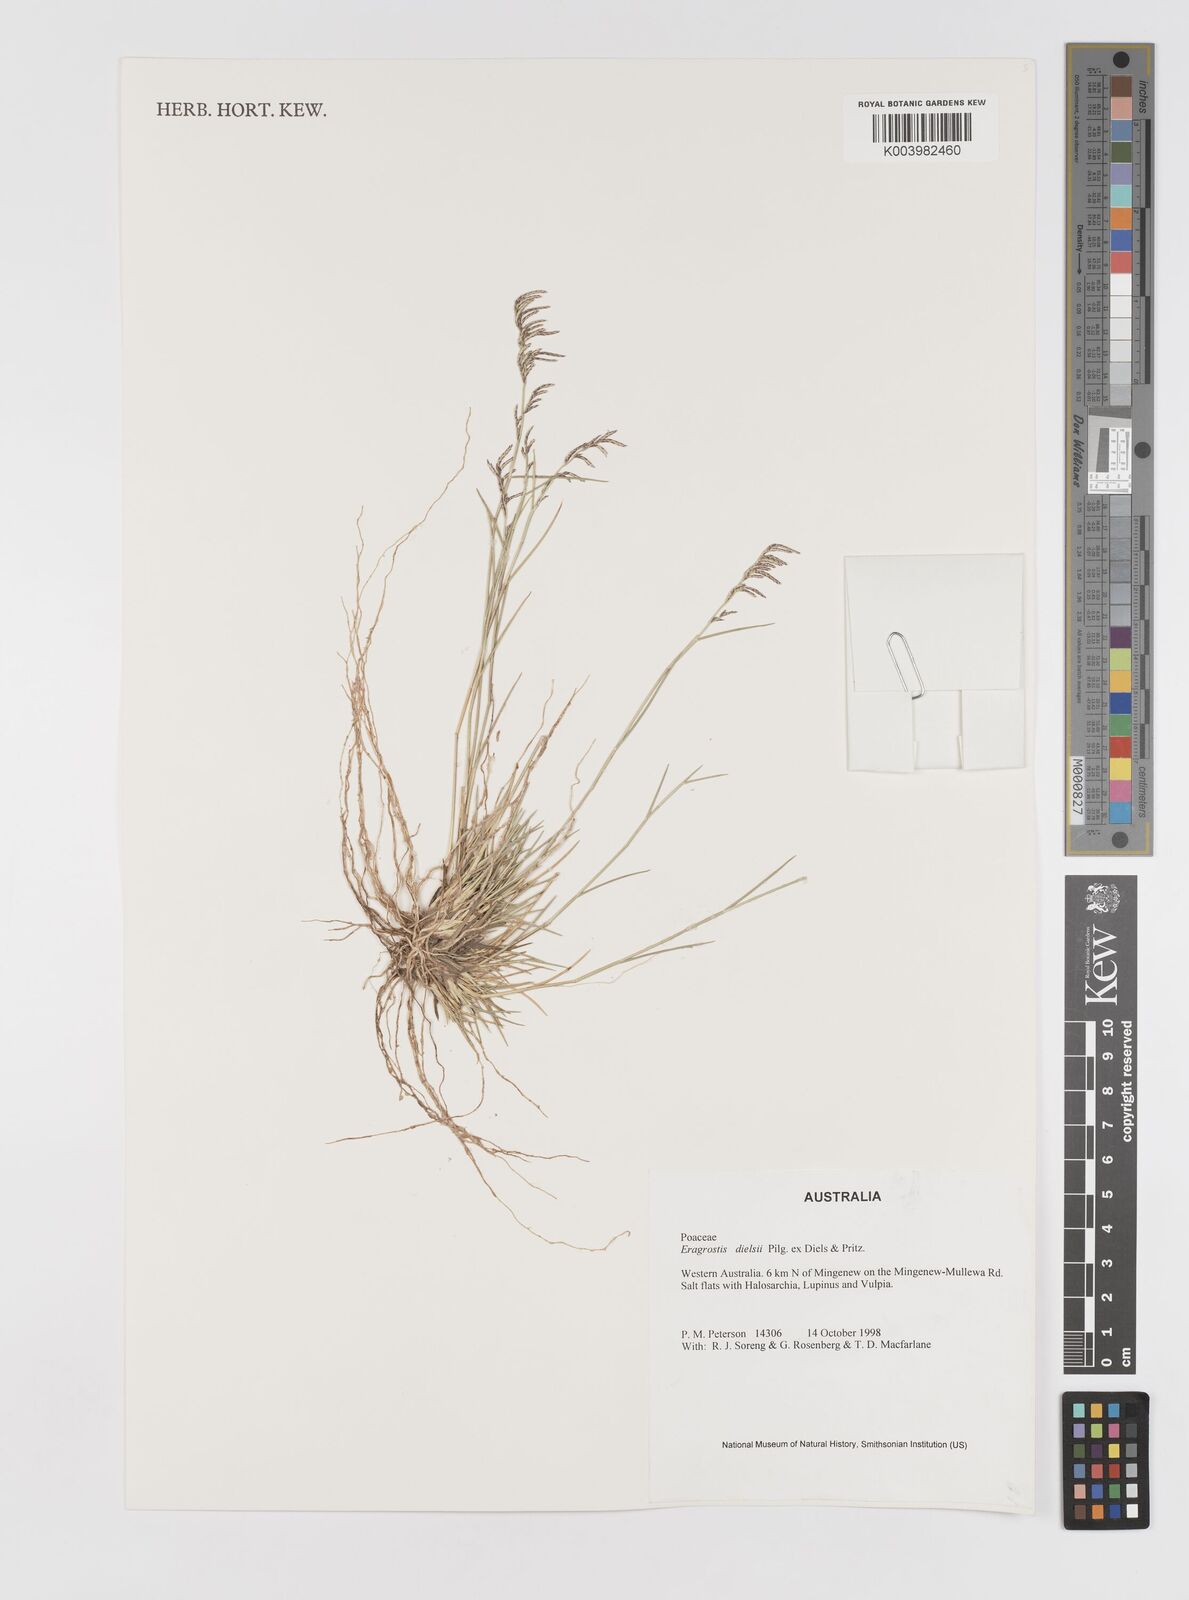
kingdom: Plantae
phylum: Tracheophyta
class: Liliopsida
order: Poales
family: Poaceae
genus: Eragrostis
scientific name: Eragrostis dielsii
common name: Lovegrass
